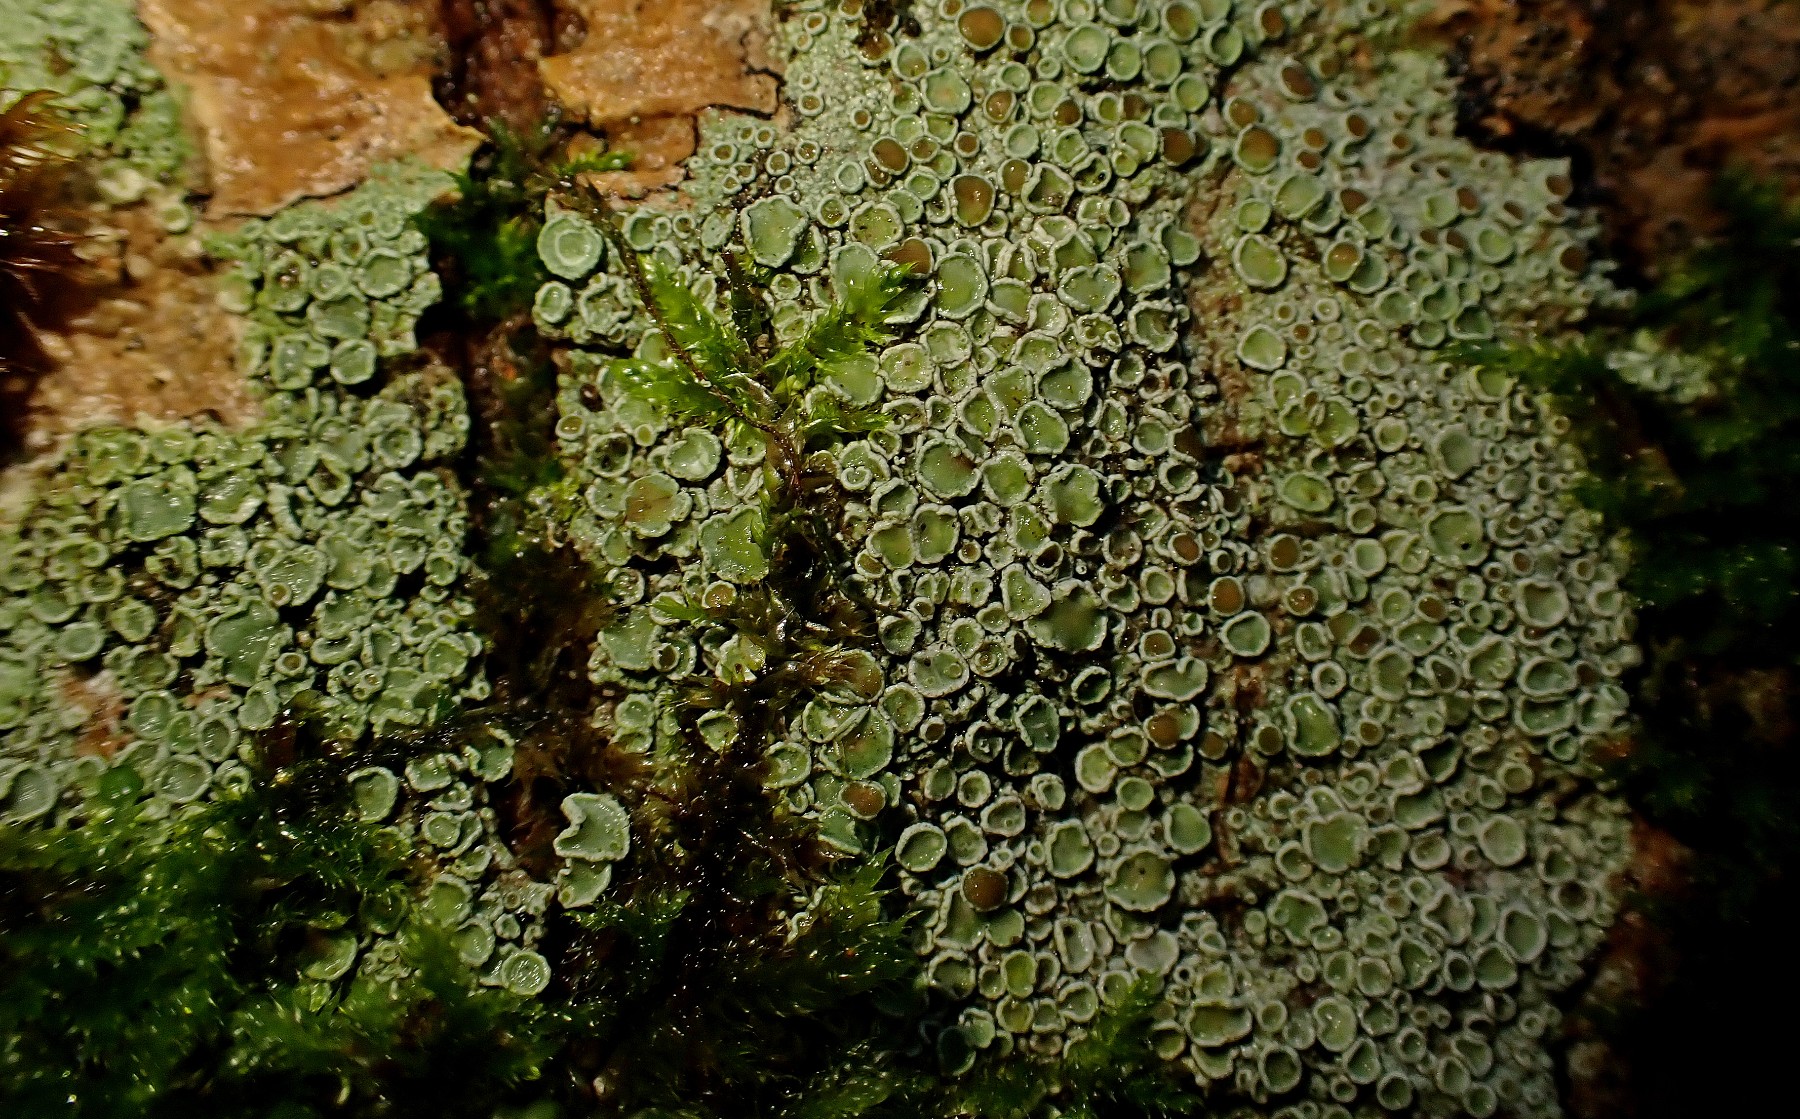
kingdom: Fungi
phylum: Ascomycota
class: Lecanoromycetes
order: Lecanorales
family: Lecanoraceae
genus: Lecanora
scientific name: Lecanora chlarotera
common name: brun kantskivelav
